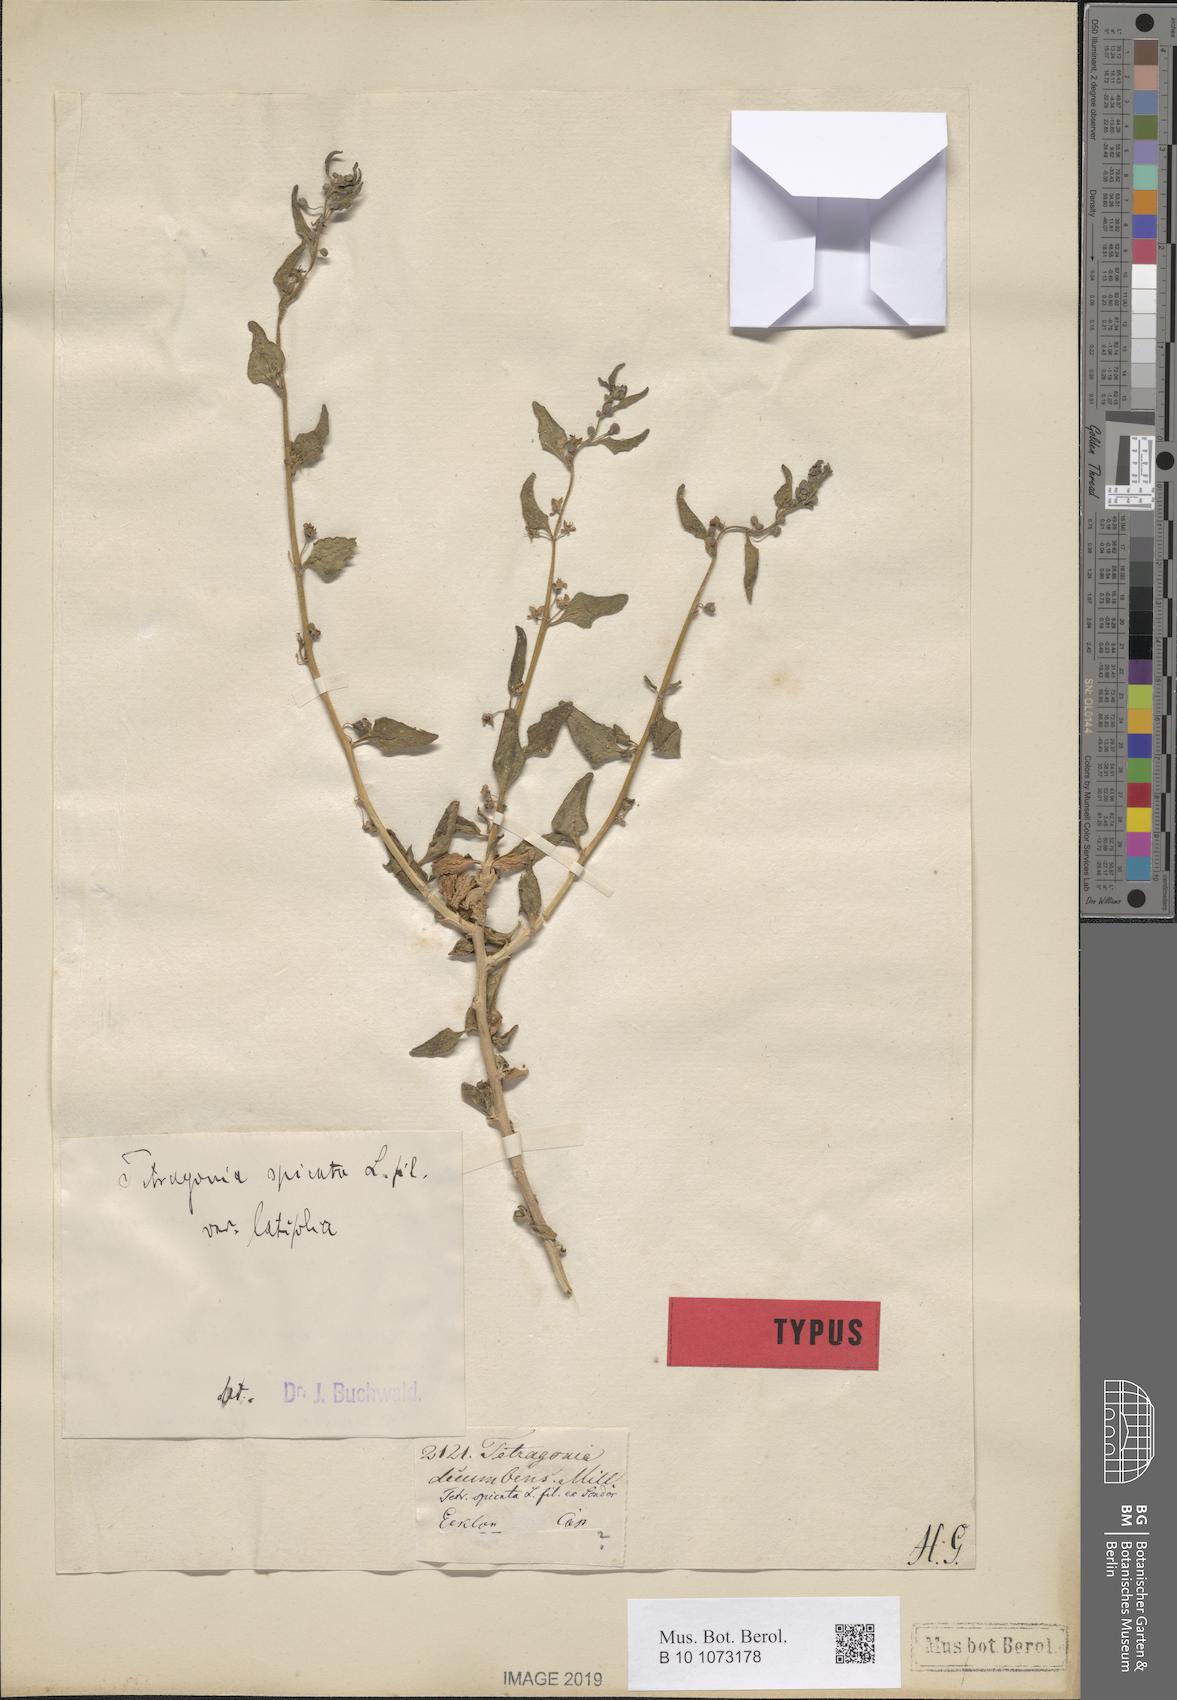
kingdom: Plantae
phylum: Tracheophyta
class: Magnoliopsida
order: Caryophyllales
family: Aizoaceae
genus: Tetragonia
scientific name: Tetragonia spicata
